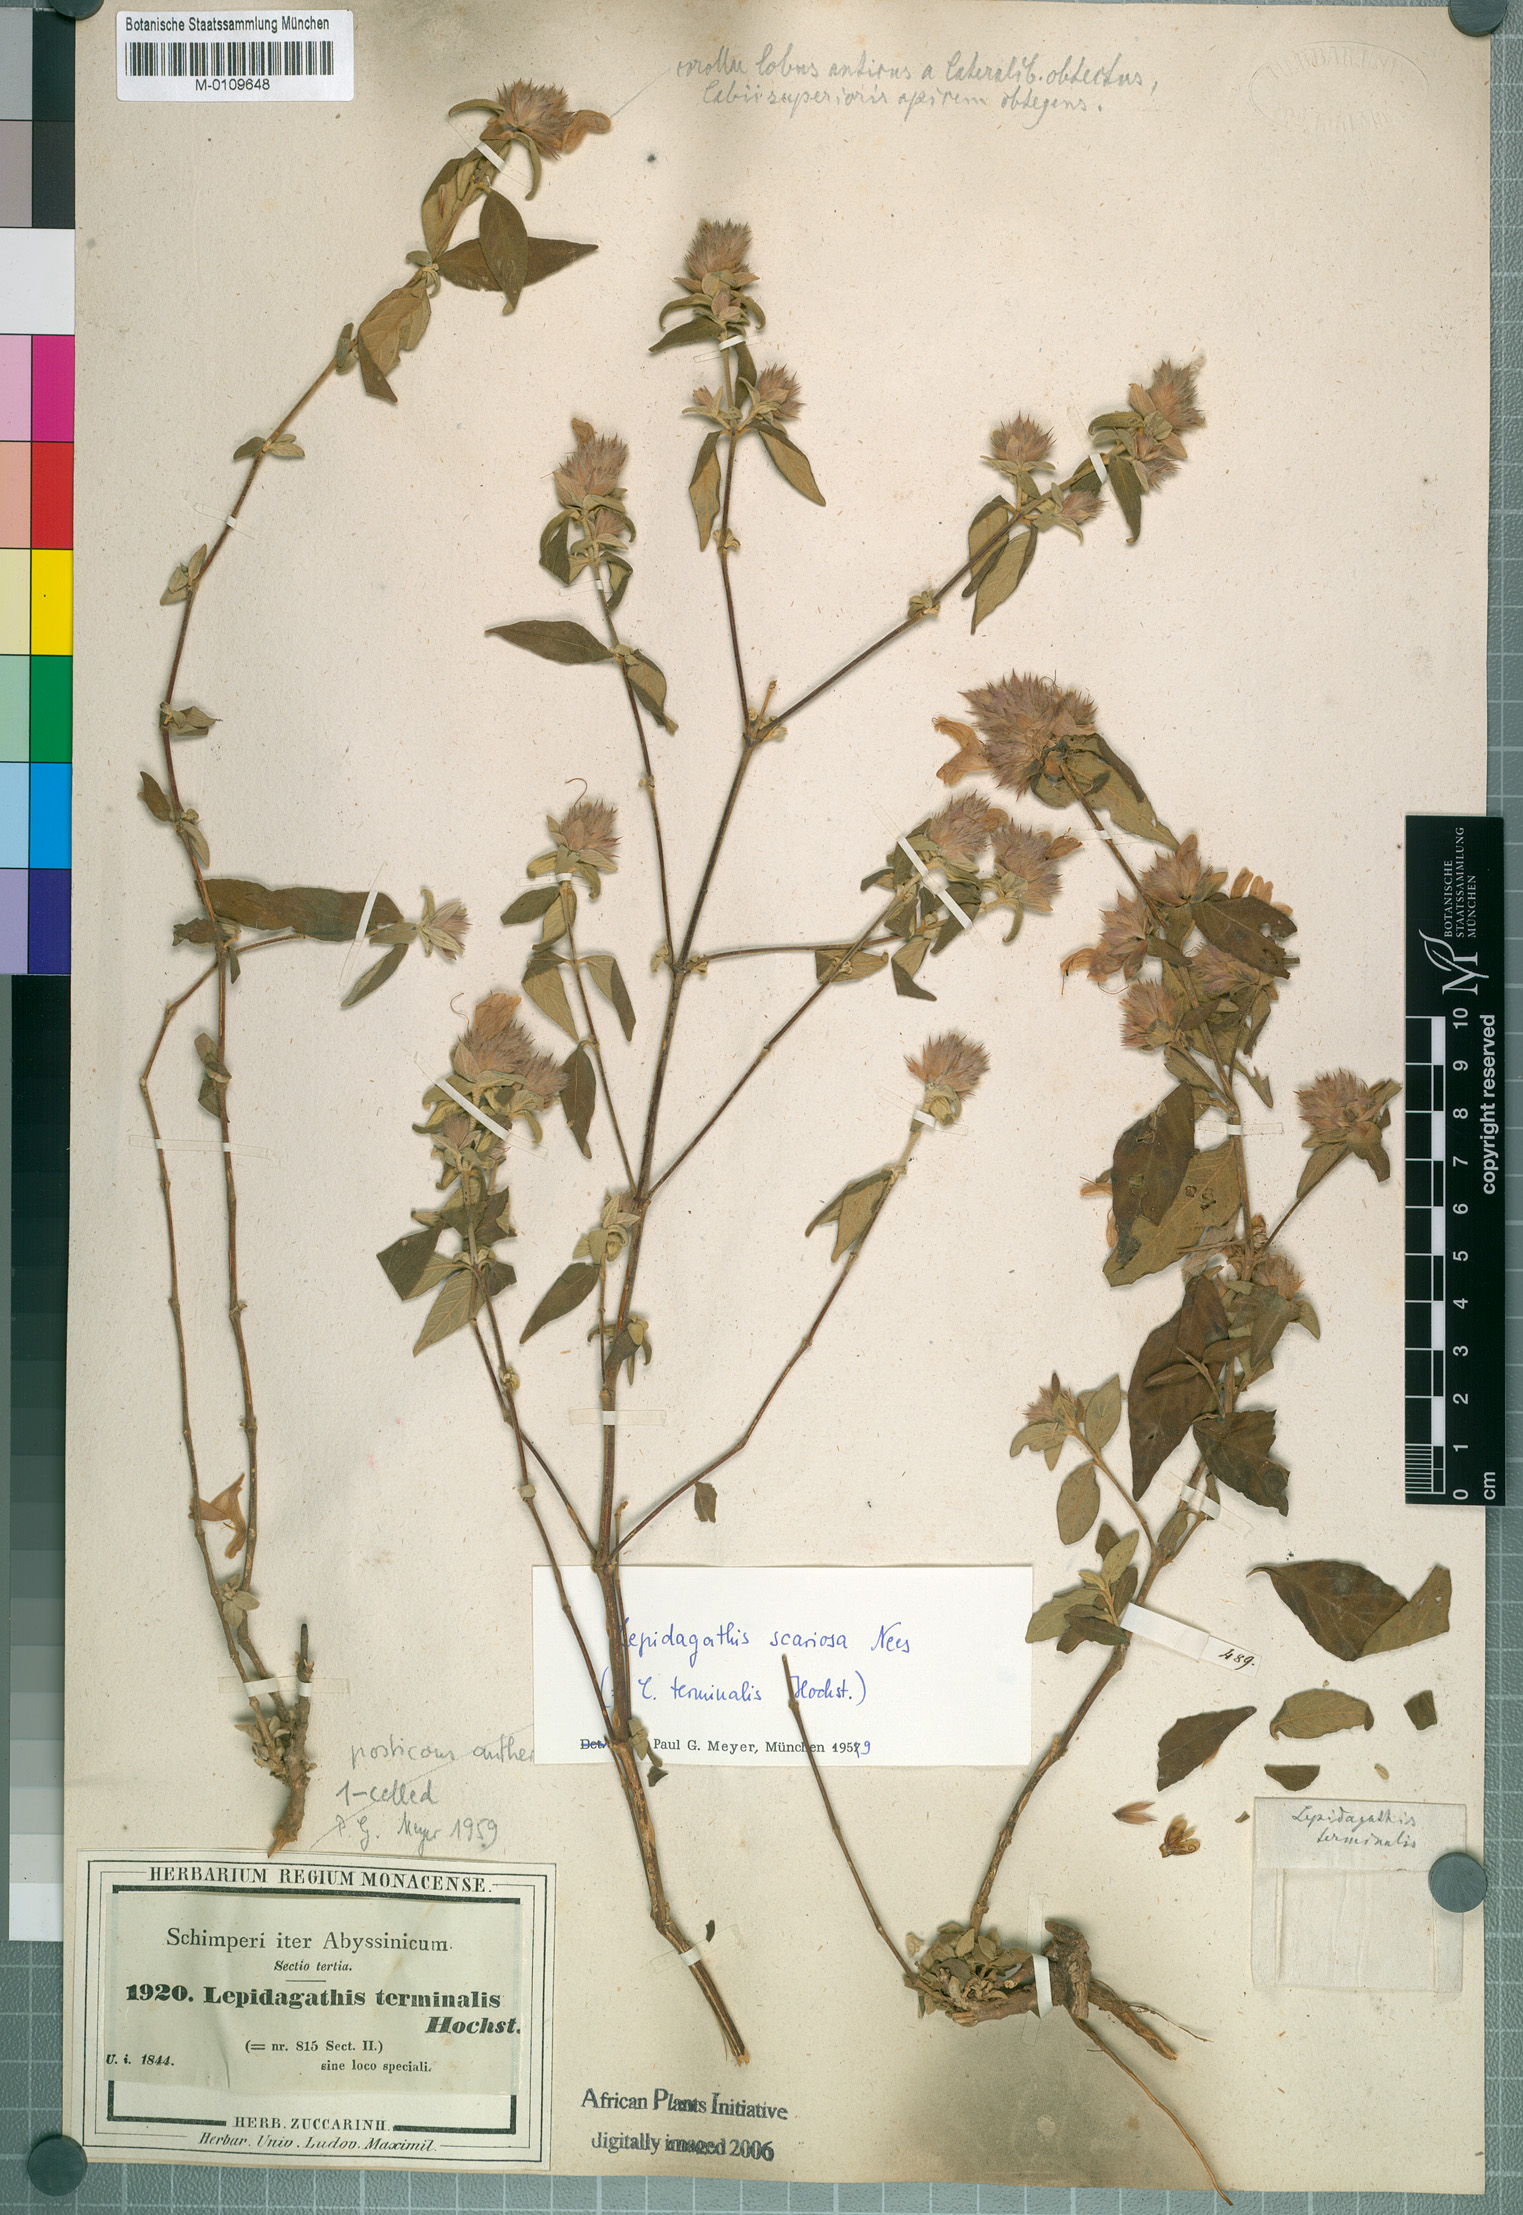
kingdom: Plantae
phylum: Tracheophyta
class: Magnoliopsida
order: Lamiales
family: Acanthaceae
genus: Lepidagathis
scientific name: Lepidagathis scariosa
